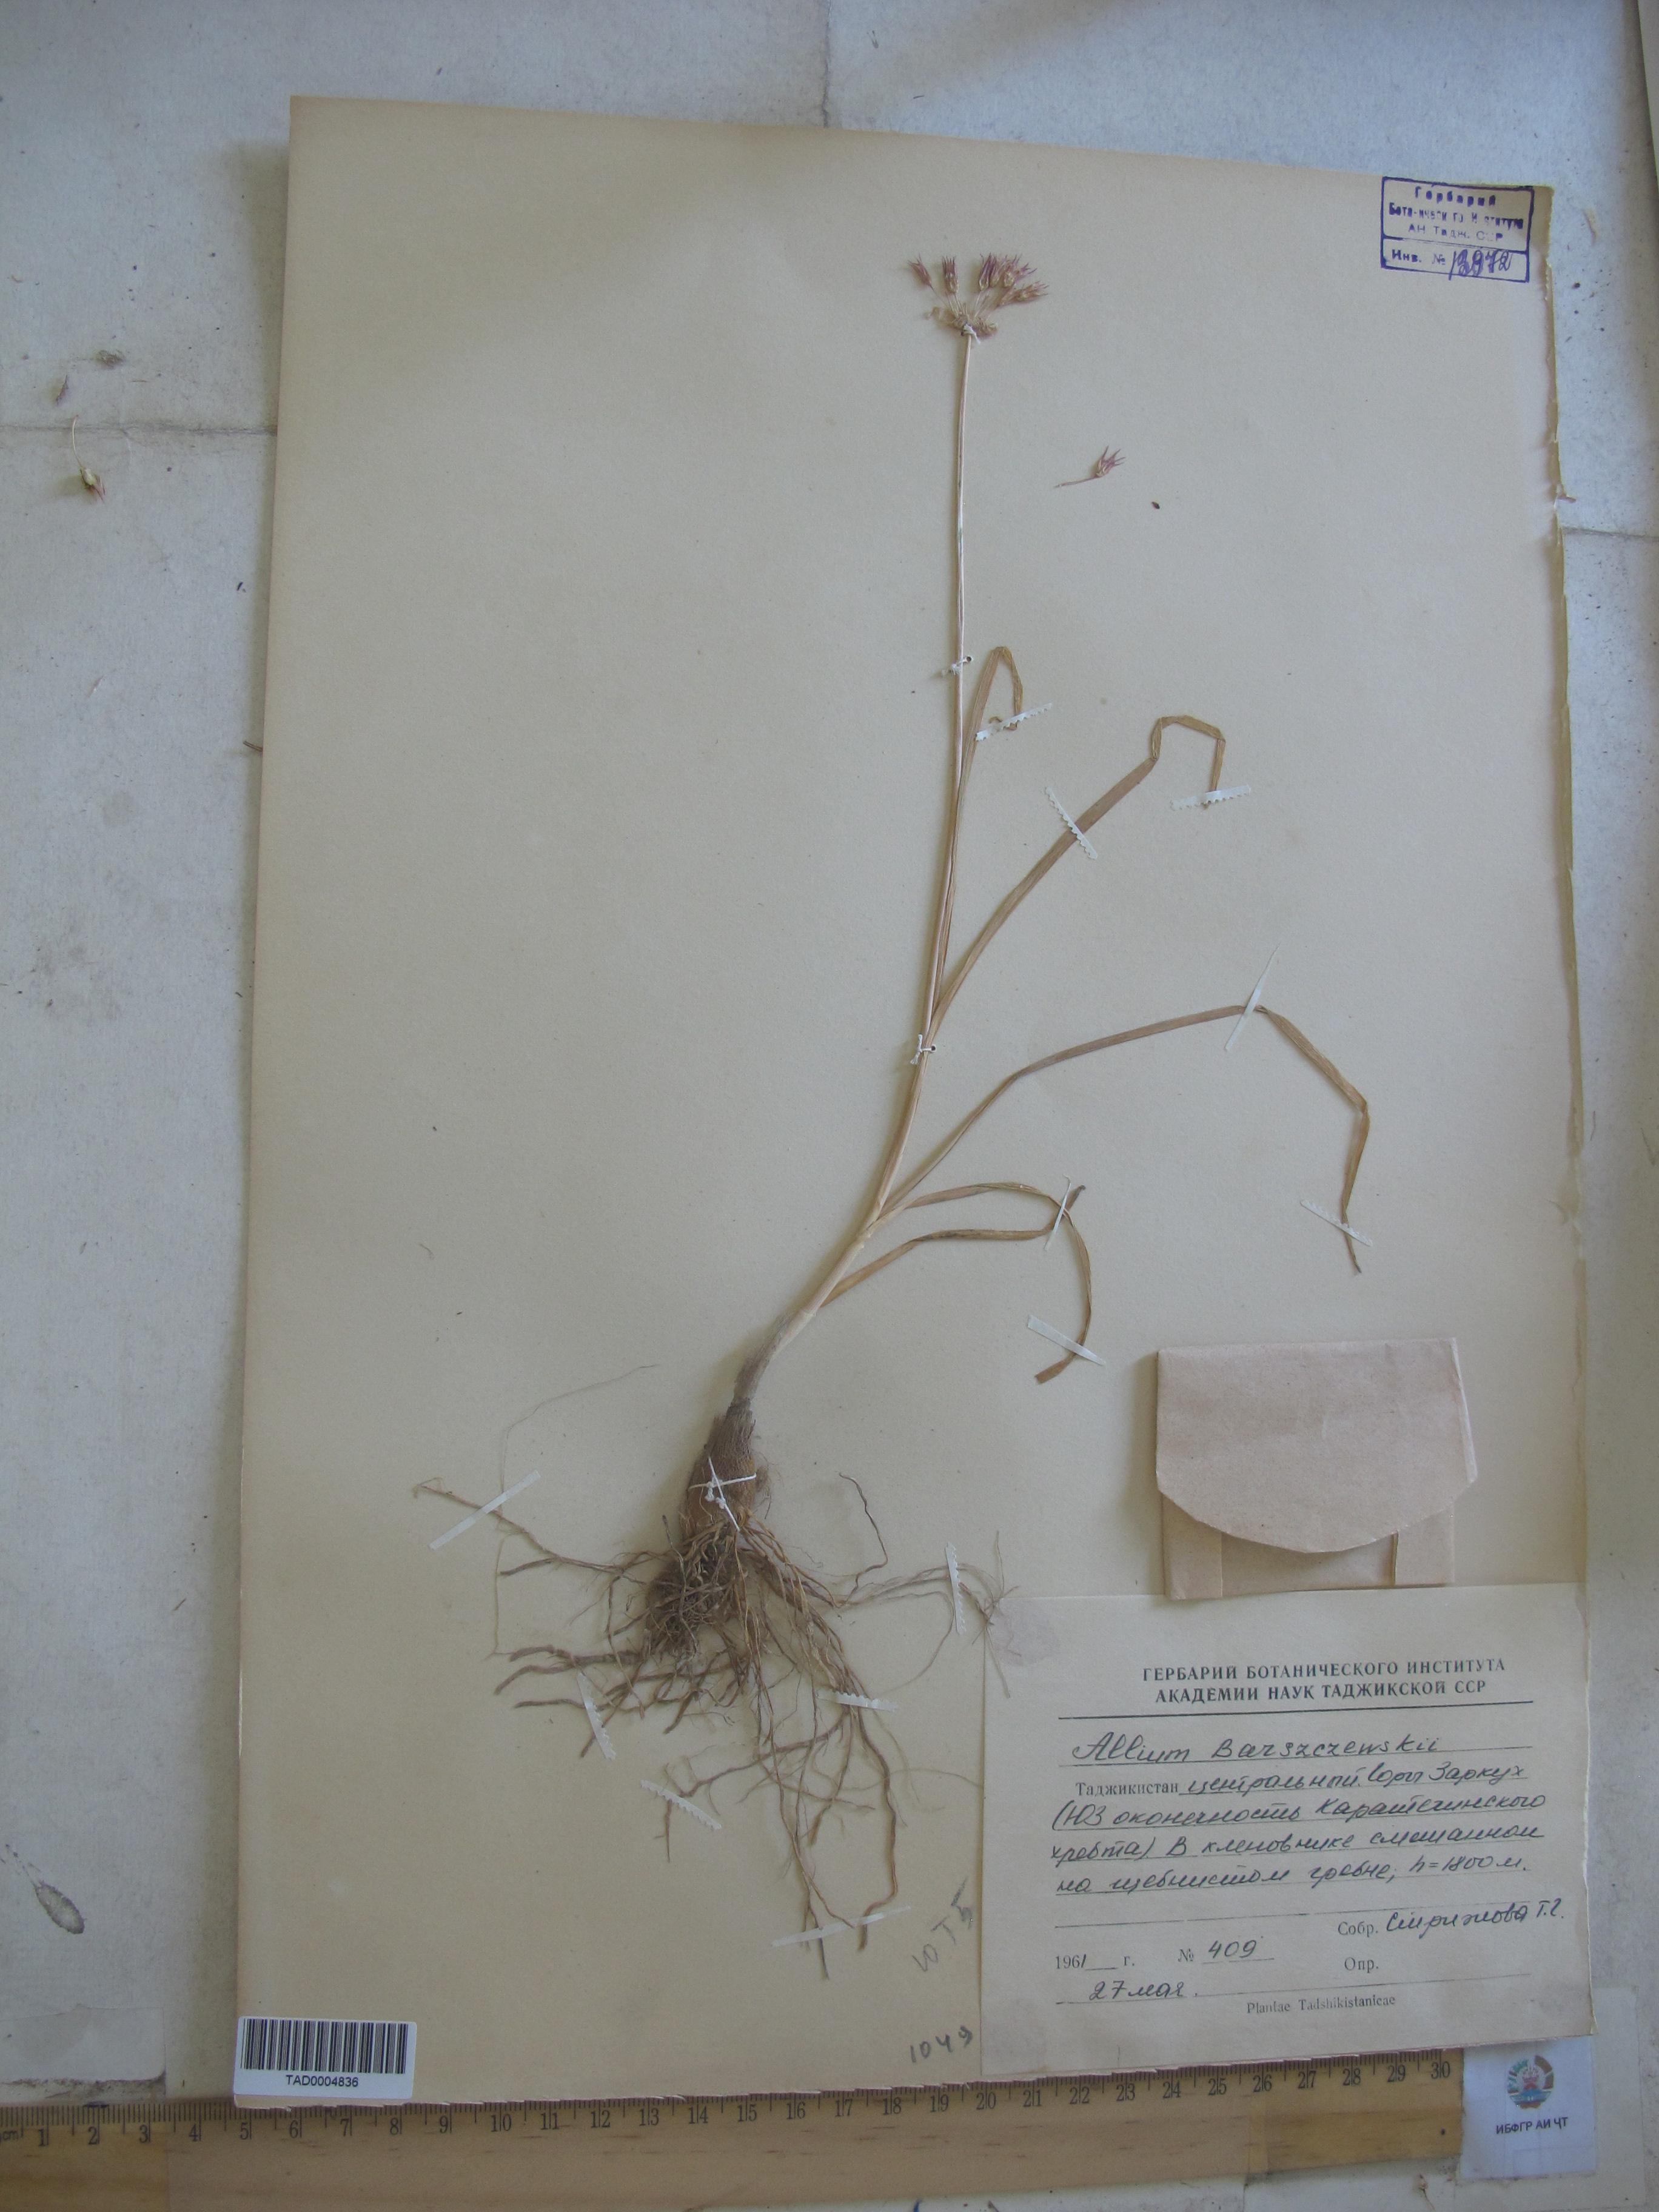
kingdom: Plantae
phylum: Tracheophyta
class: Liliopsida
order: Asparagales
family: Amaryllidaceae
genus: Allium
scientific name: Allium barsczewskii
